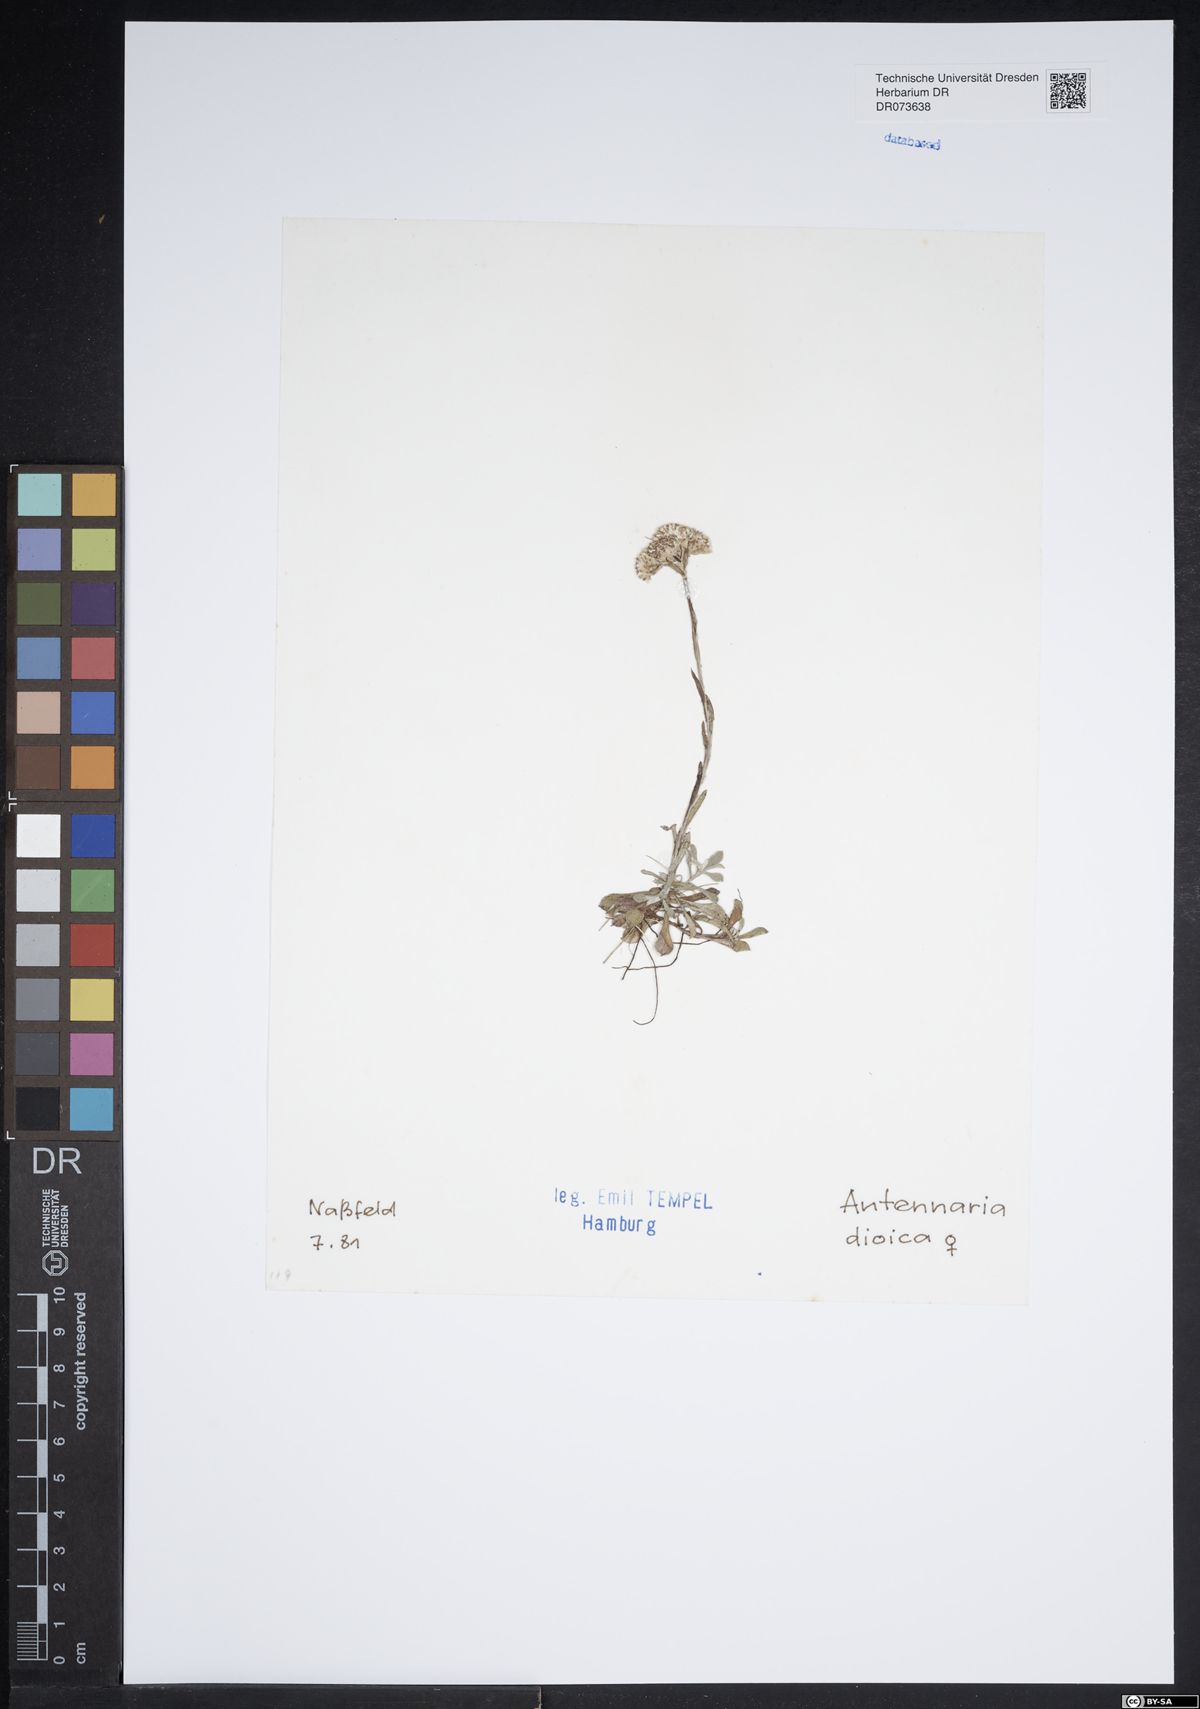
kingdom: Plantae
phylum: Tracheophyta
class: Magnoliopsida
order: Asterales
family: Asteraceae
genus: Antennaria
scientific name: Antennaria dioica
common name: Mountain everlasting
